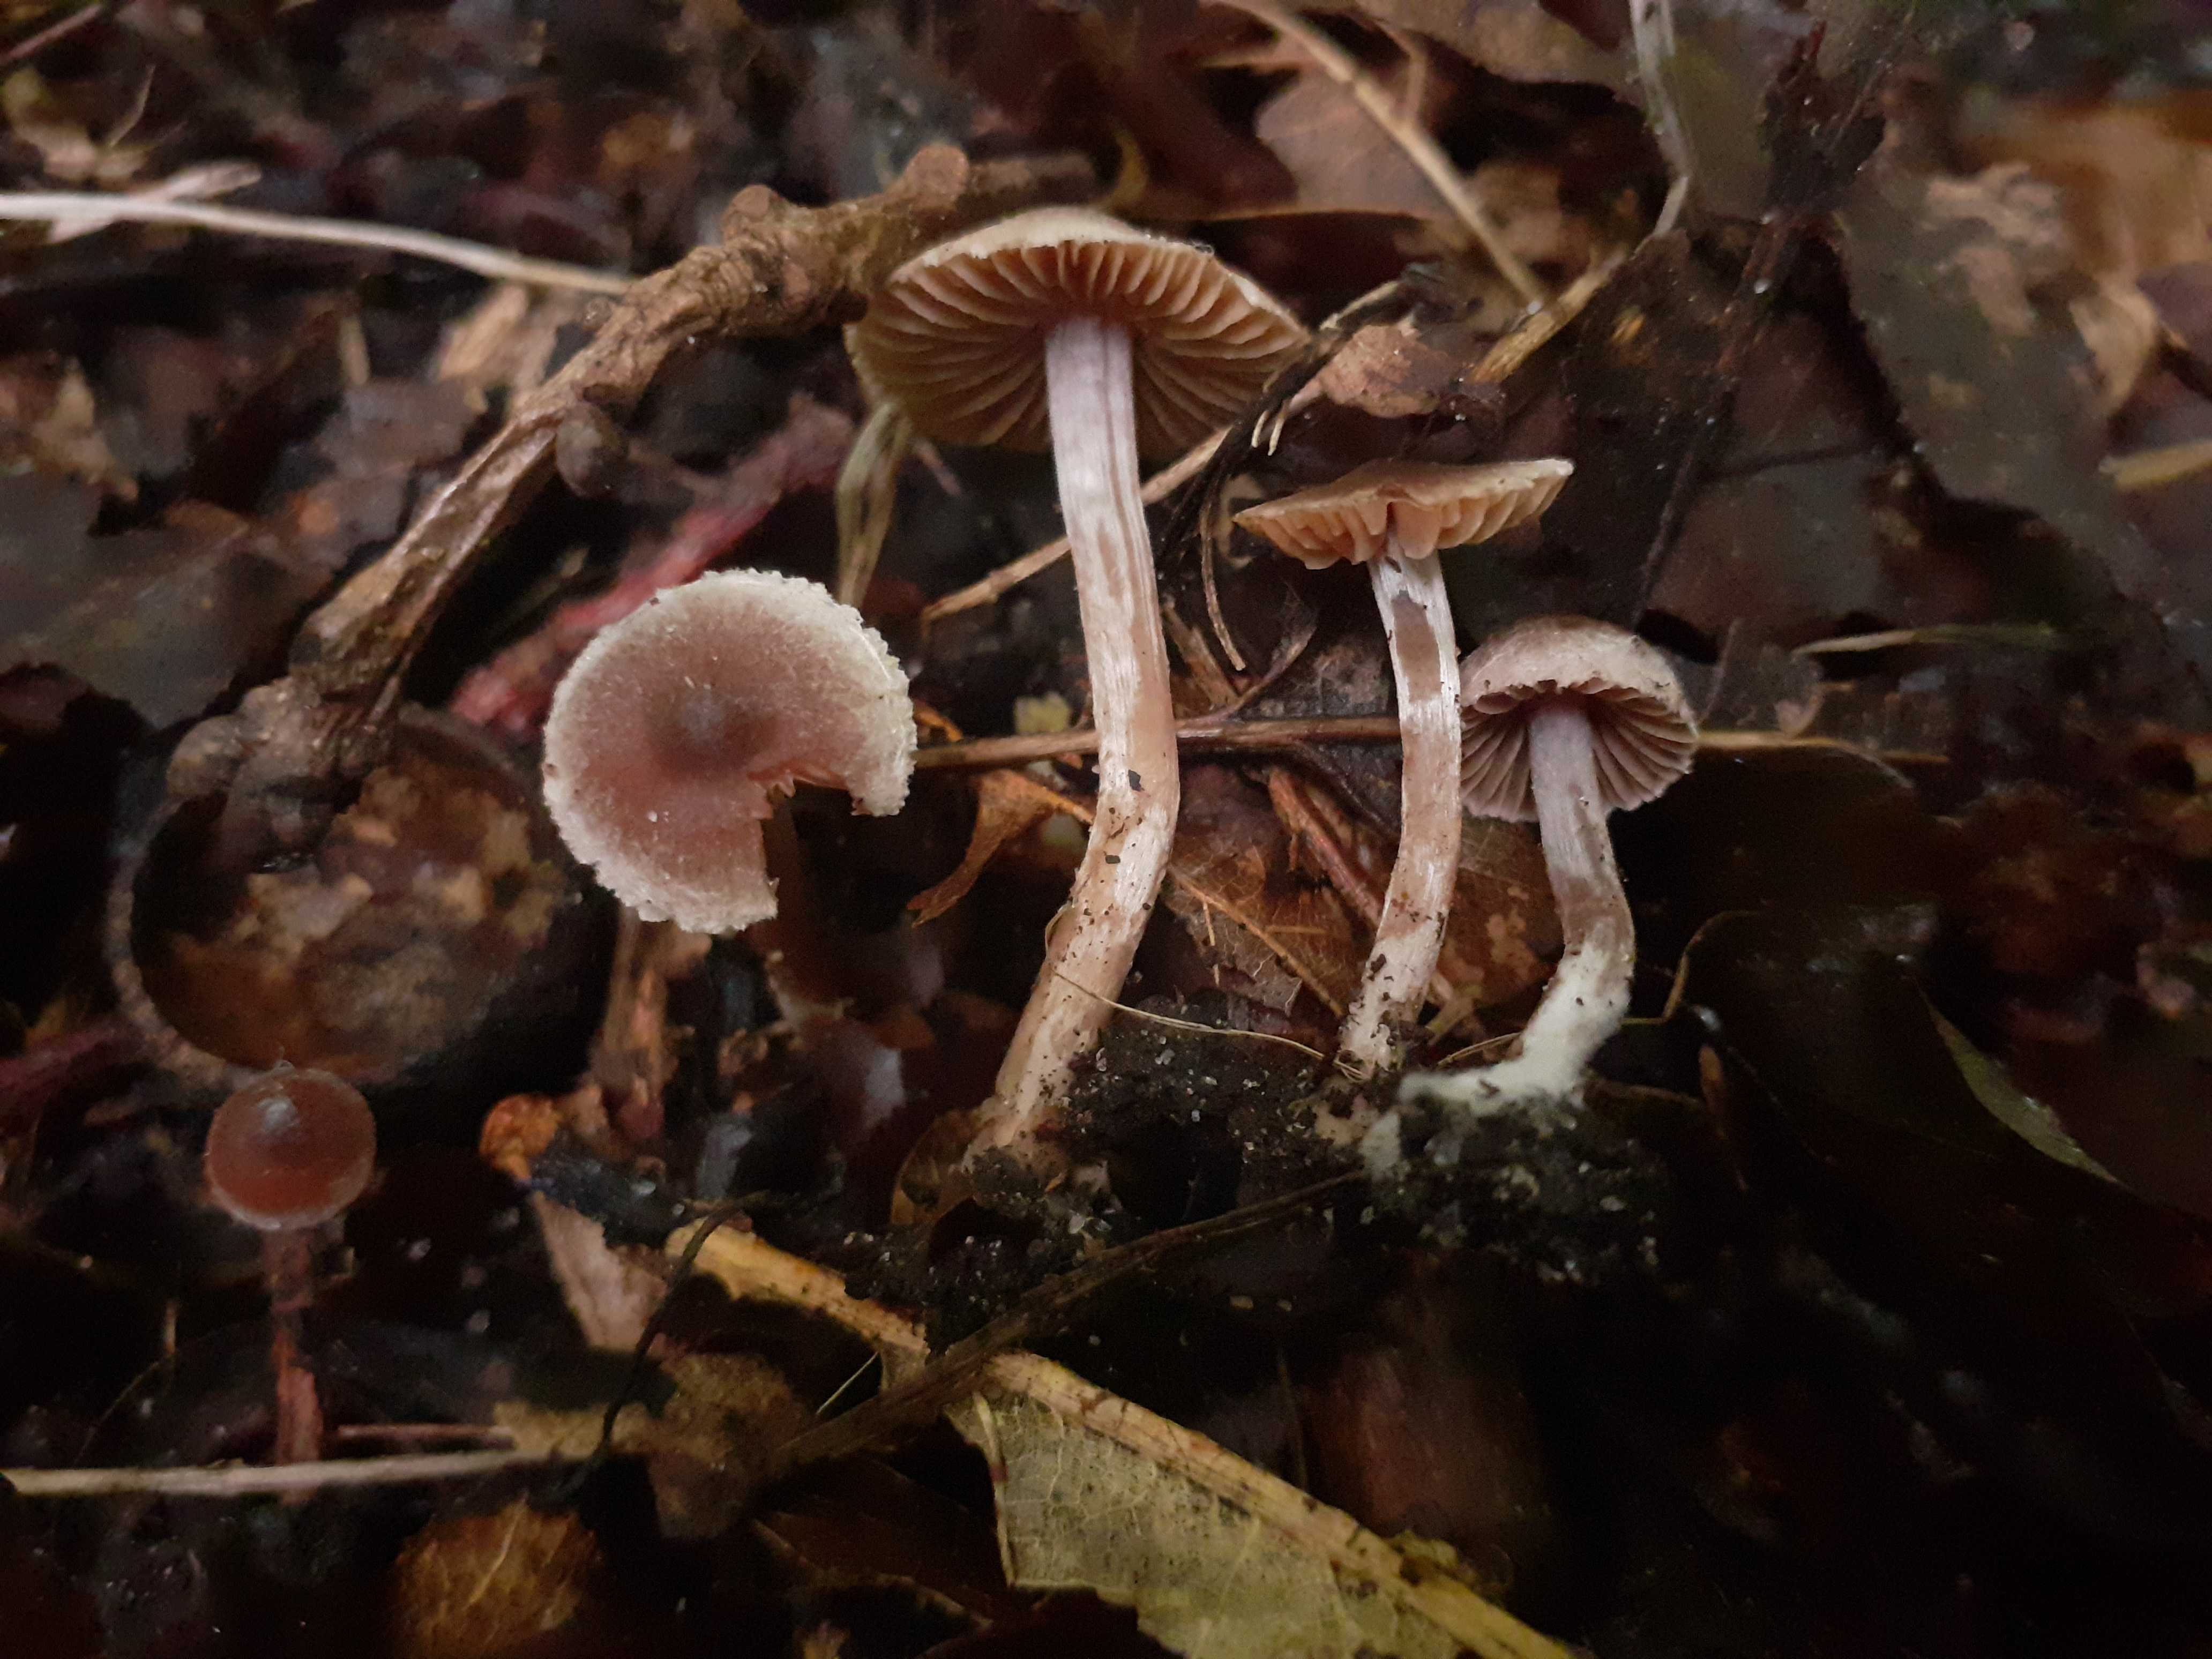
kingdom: Fungi
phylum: Basidiomycota
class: Agaricomycetes
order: Agaricales
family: Inocybaceae
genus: Inocybe
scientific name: Inocybe griseolilacina
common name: lillagrå trævlhat
